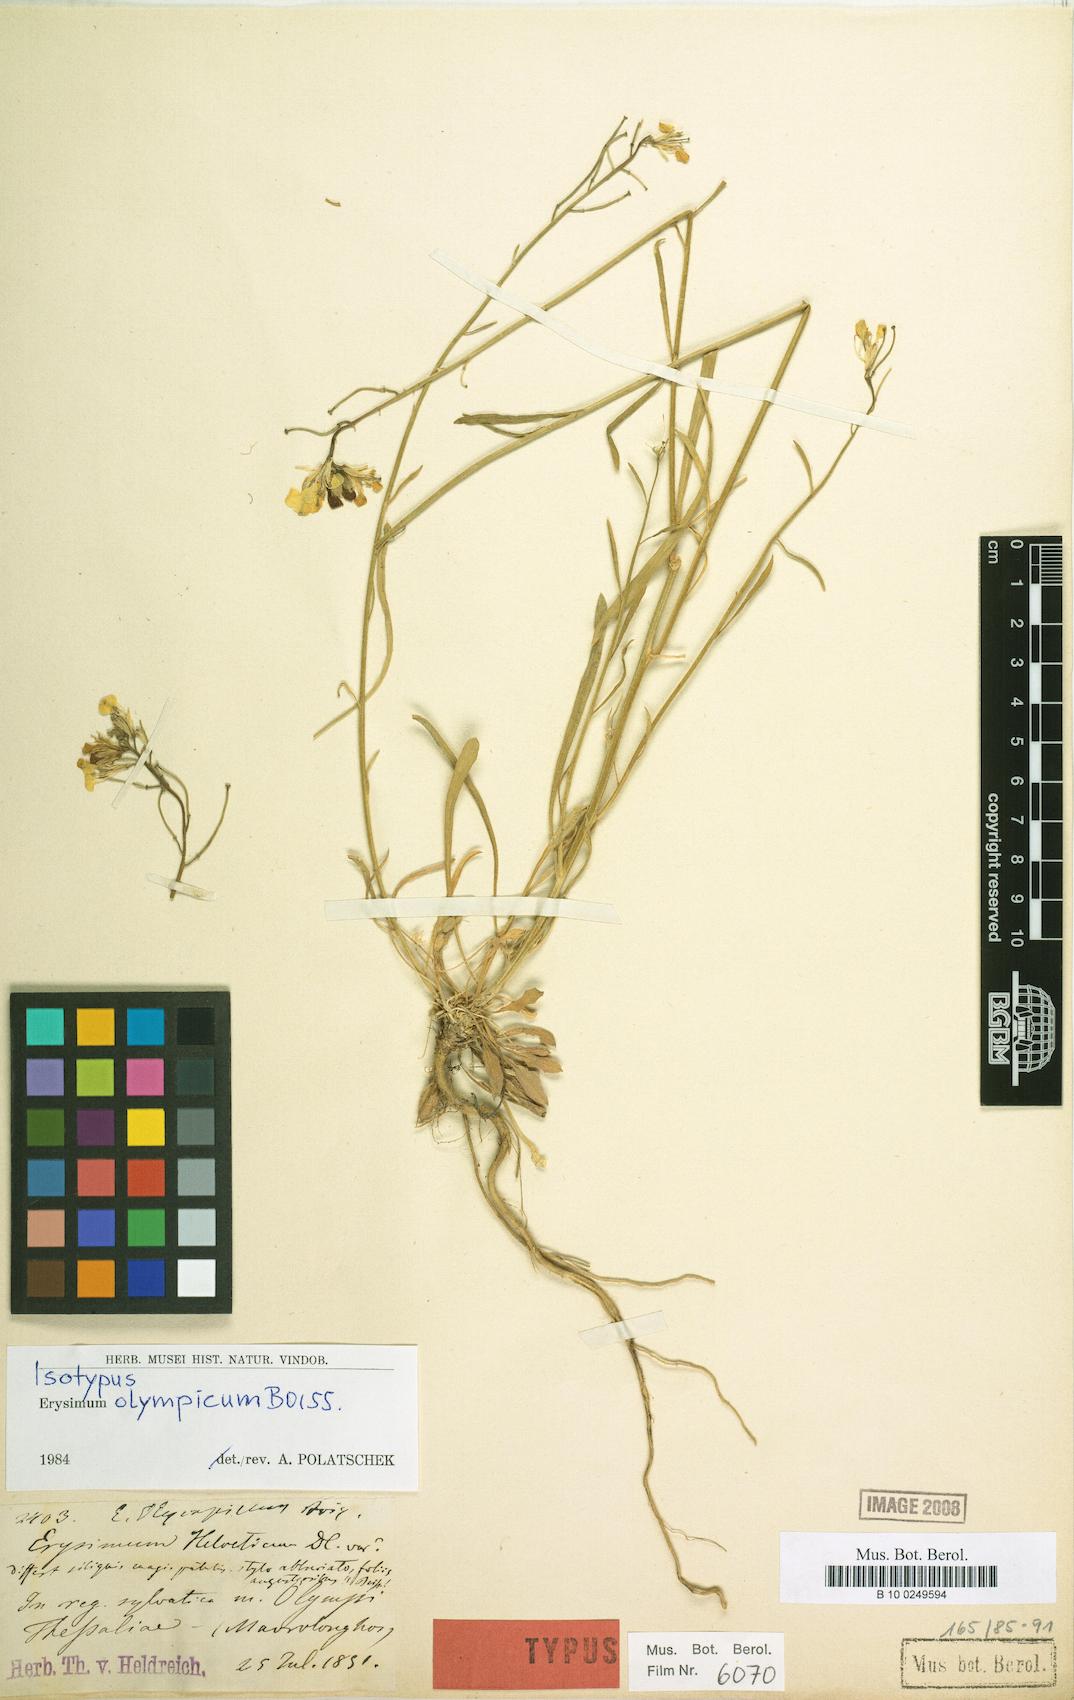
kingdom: Plantae
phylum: Tracheophyta
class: Magnoliopsida
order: Brassicales
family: Brassicaceae
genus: Erysimum
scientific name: Erysimum olympicum
